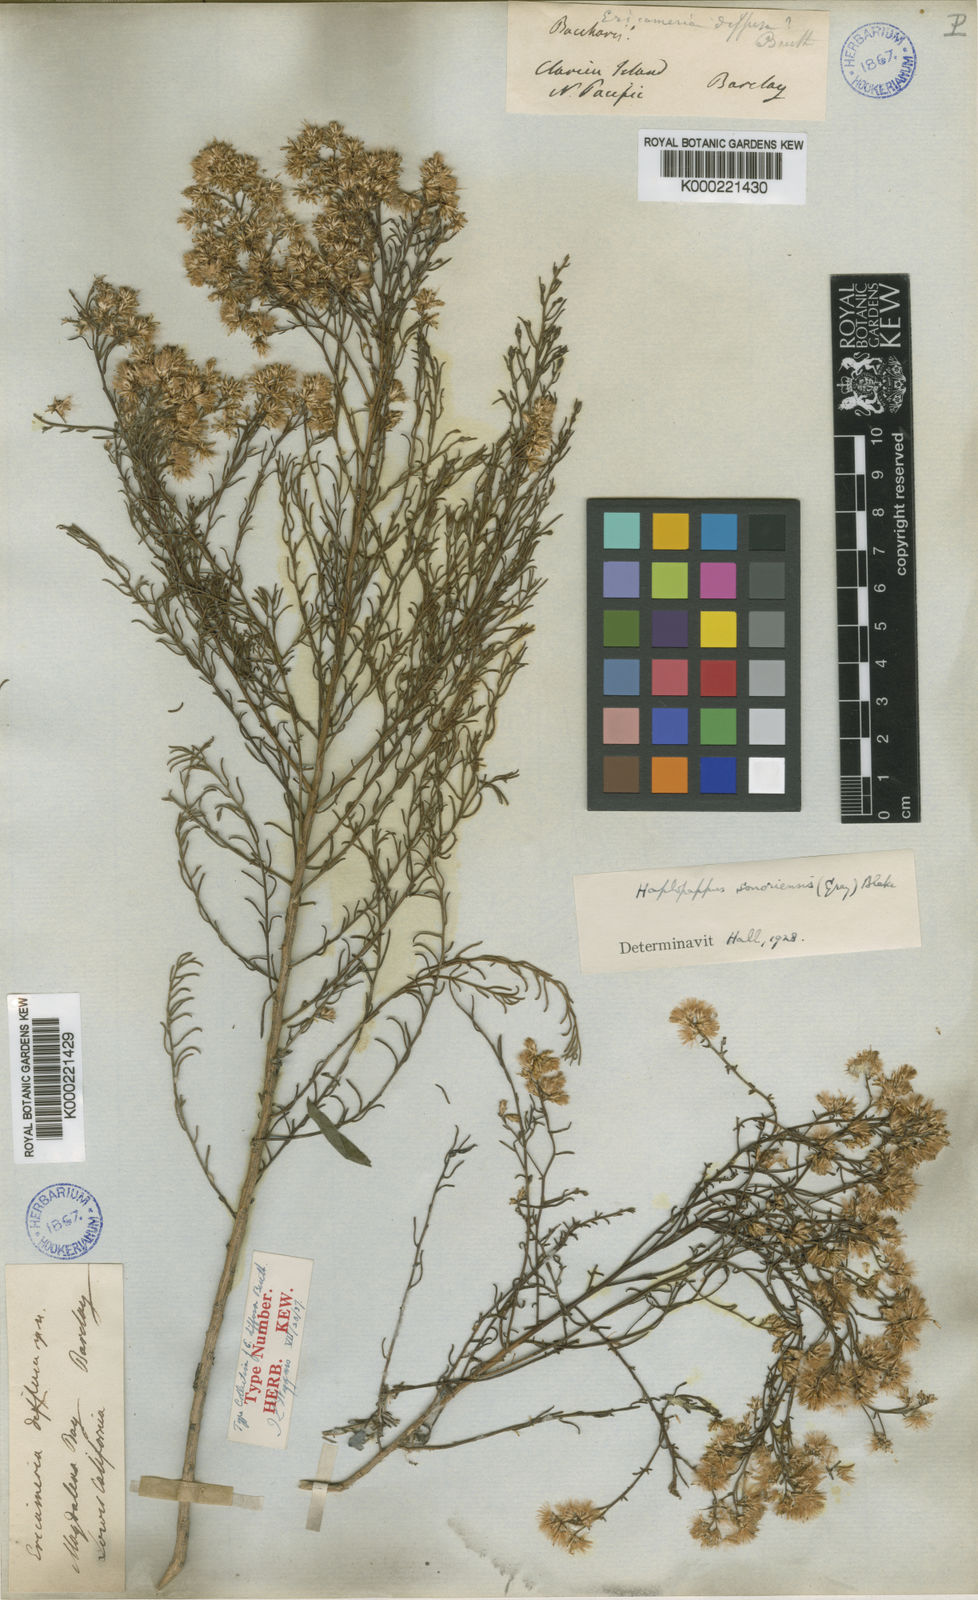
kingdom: Plantae
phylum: Tracheophyta
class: Magnoliopsida
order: Asterales
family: Asteraceae
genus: Haplopappus
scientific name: Haplopappus
